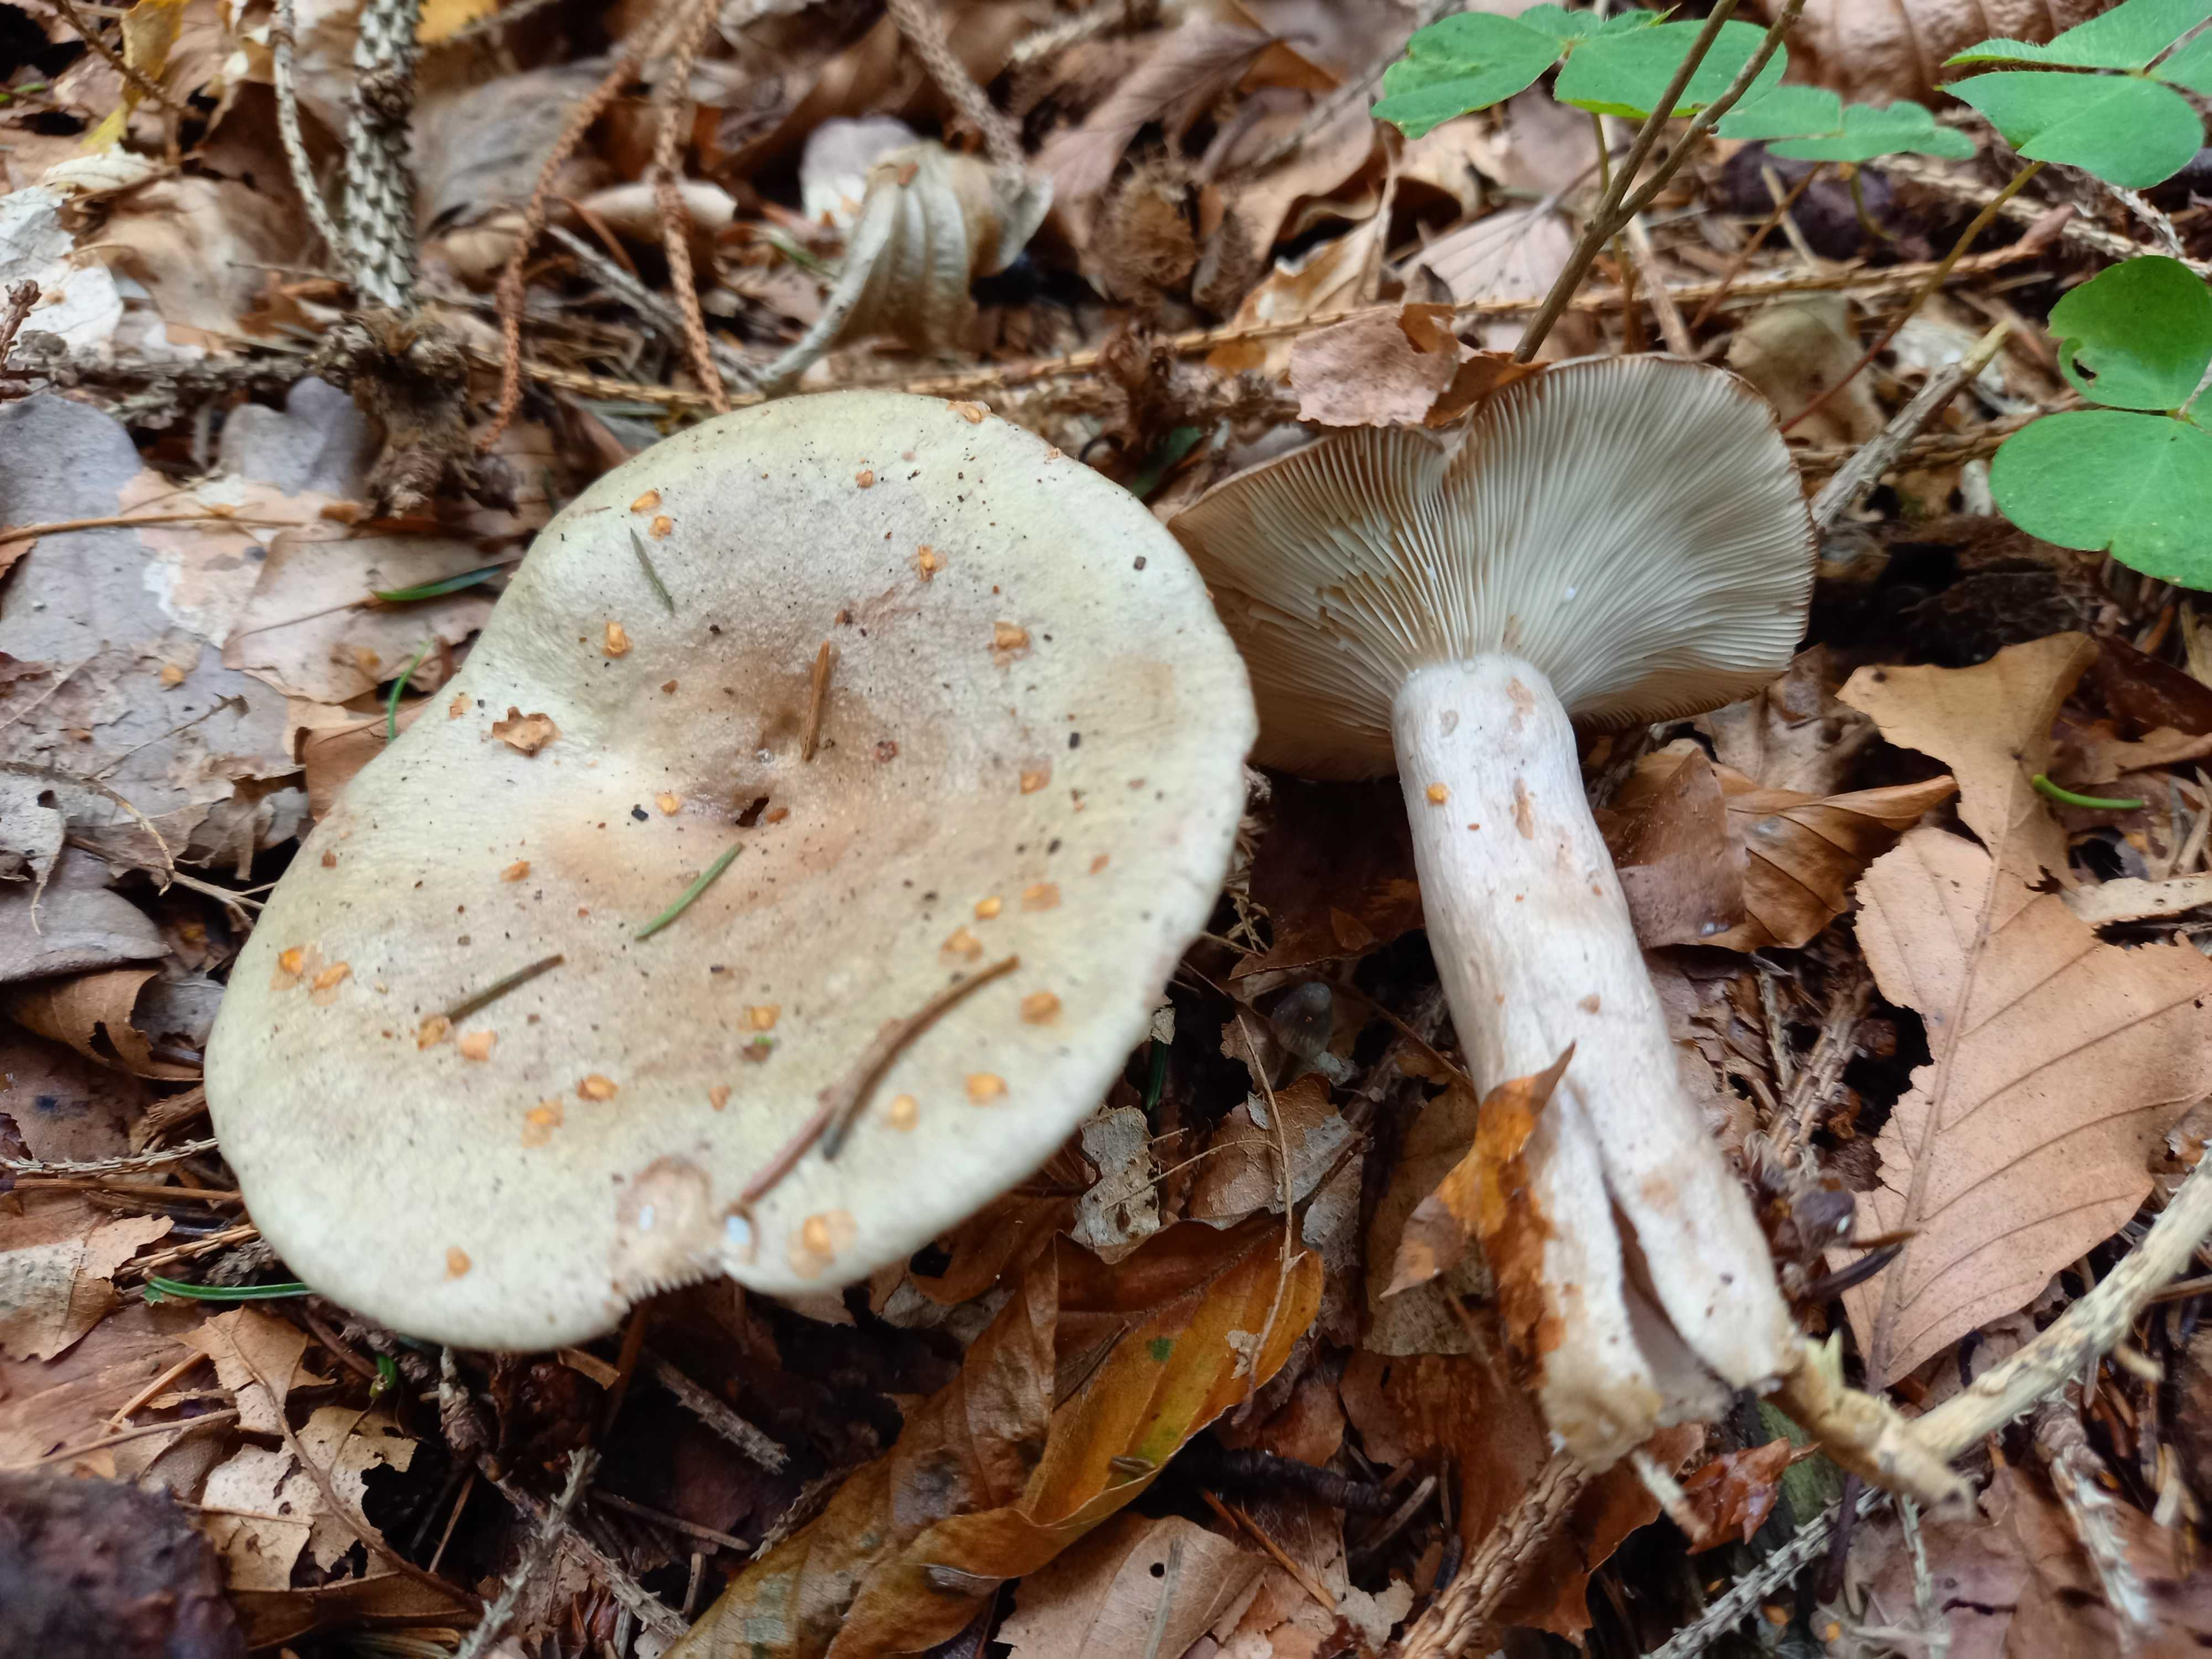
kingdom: Fungi
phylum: Basidiomycota
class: Agaricomycetes
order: Russulales
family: Russulaceae
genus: Lactarius
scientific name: Lactarius blennius
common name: dråbeplettet mælkehat
